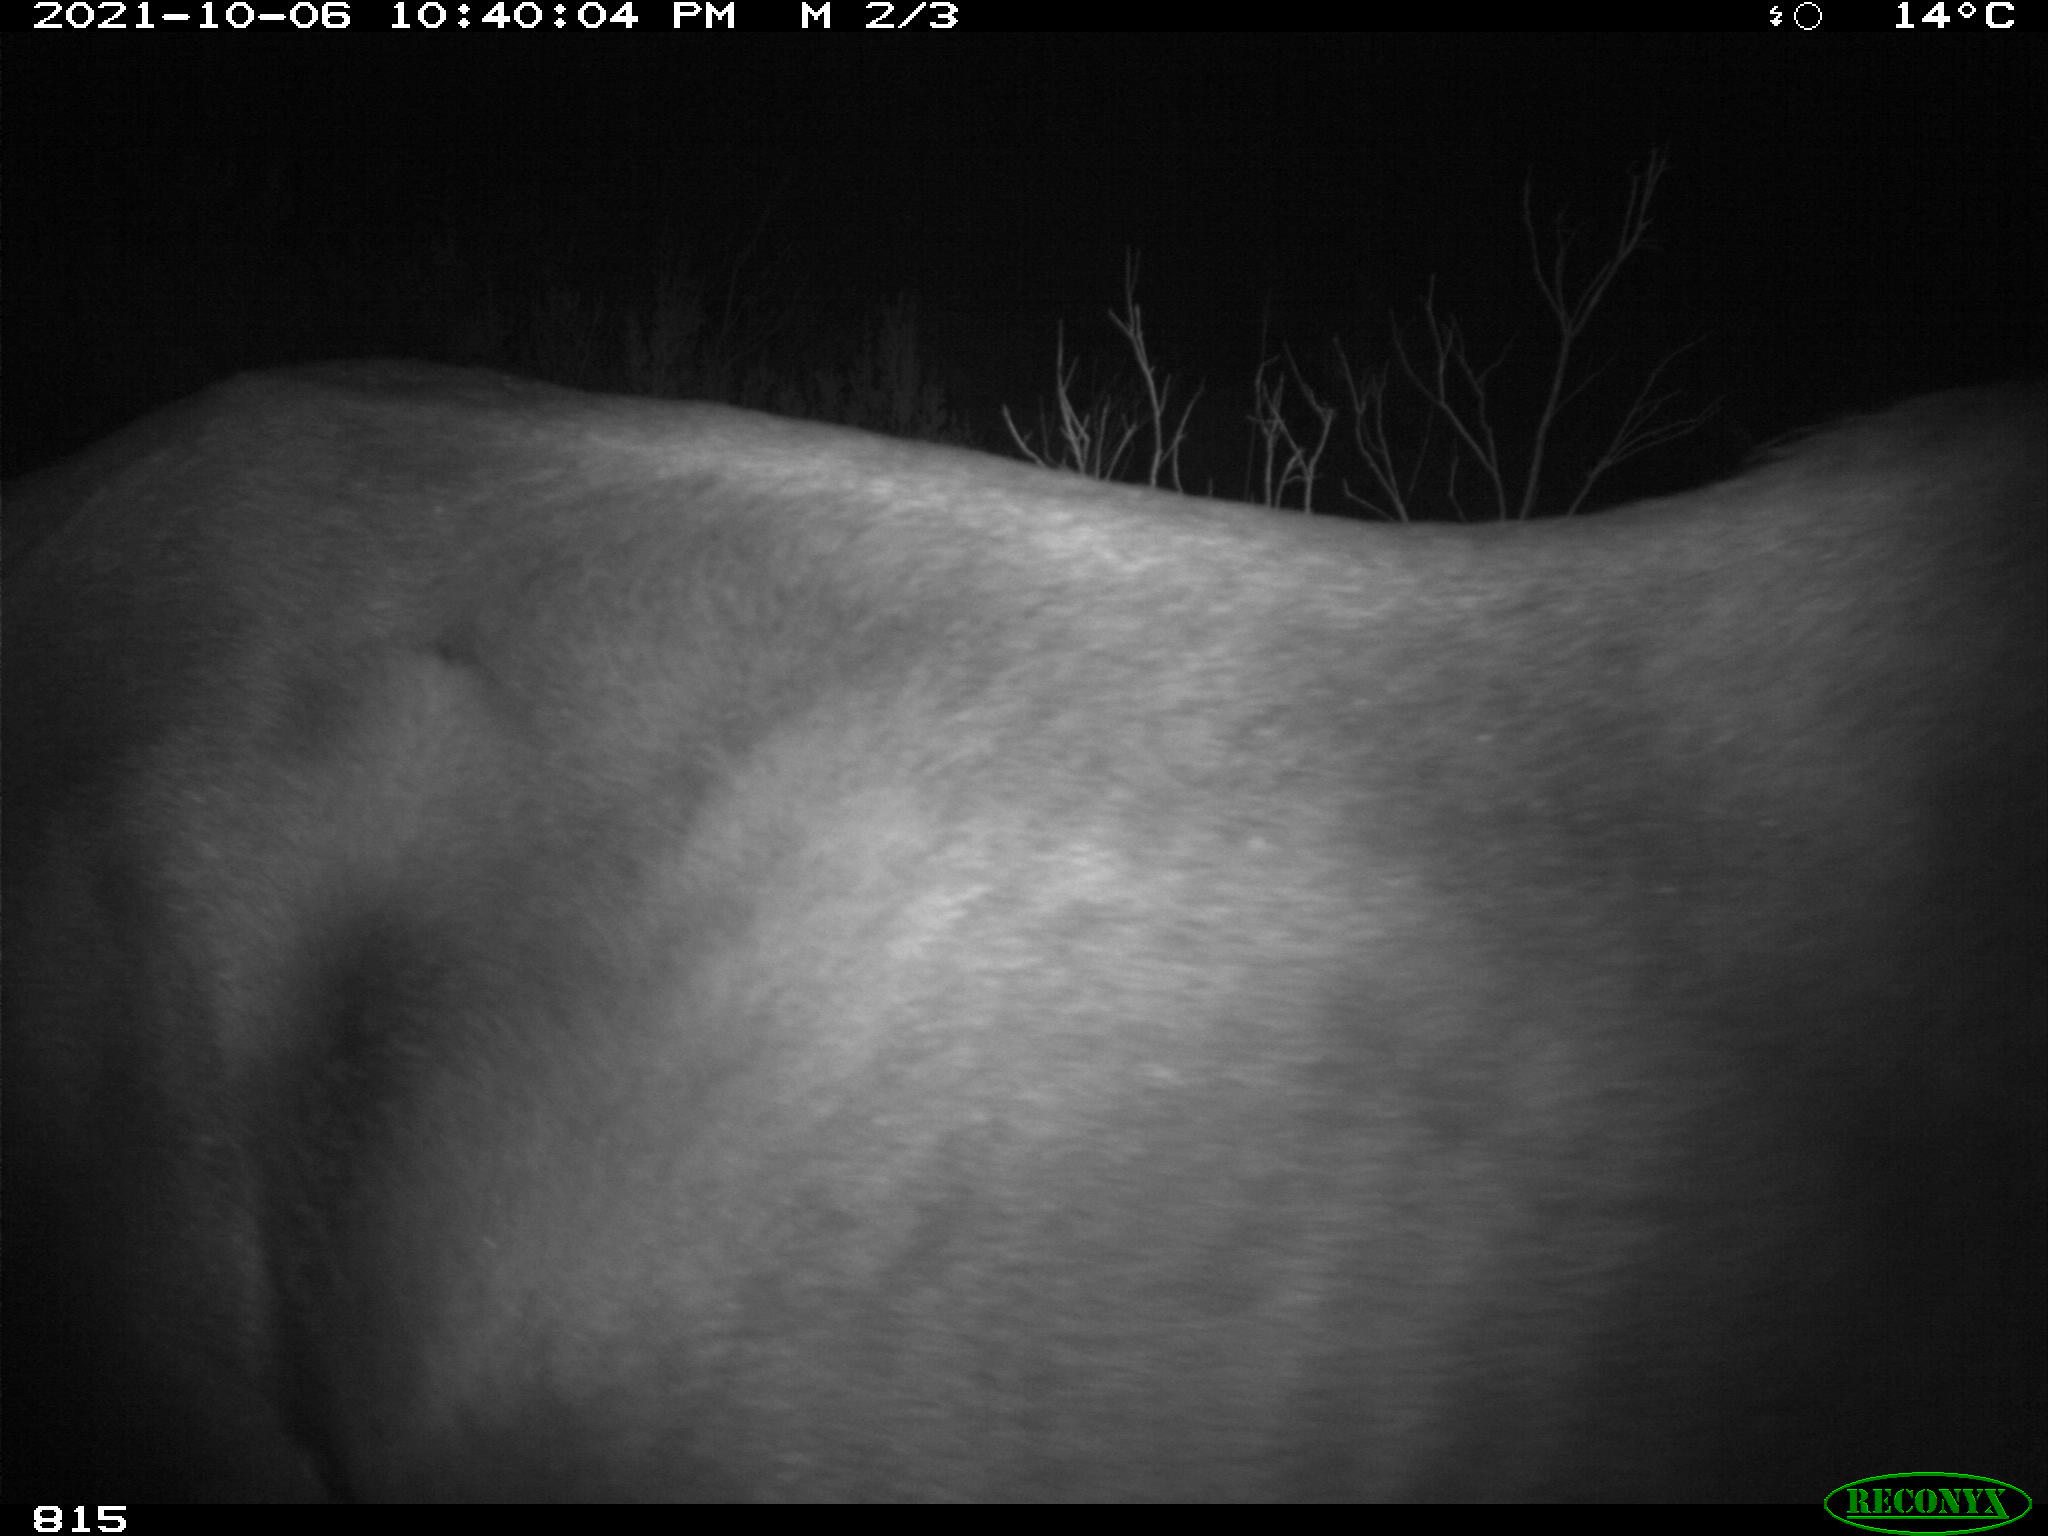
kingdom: Animalia
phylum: Chordata
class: Mammalia
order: Perissodactyla
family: Equidae
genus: Equus
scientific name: Equus caballus
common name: Horse
